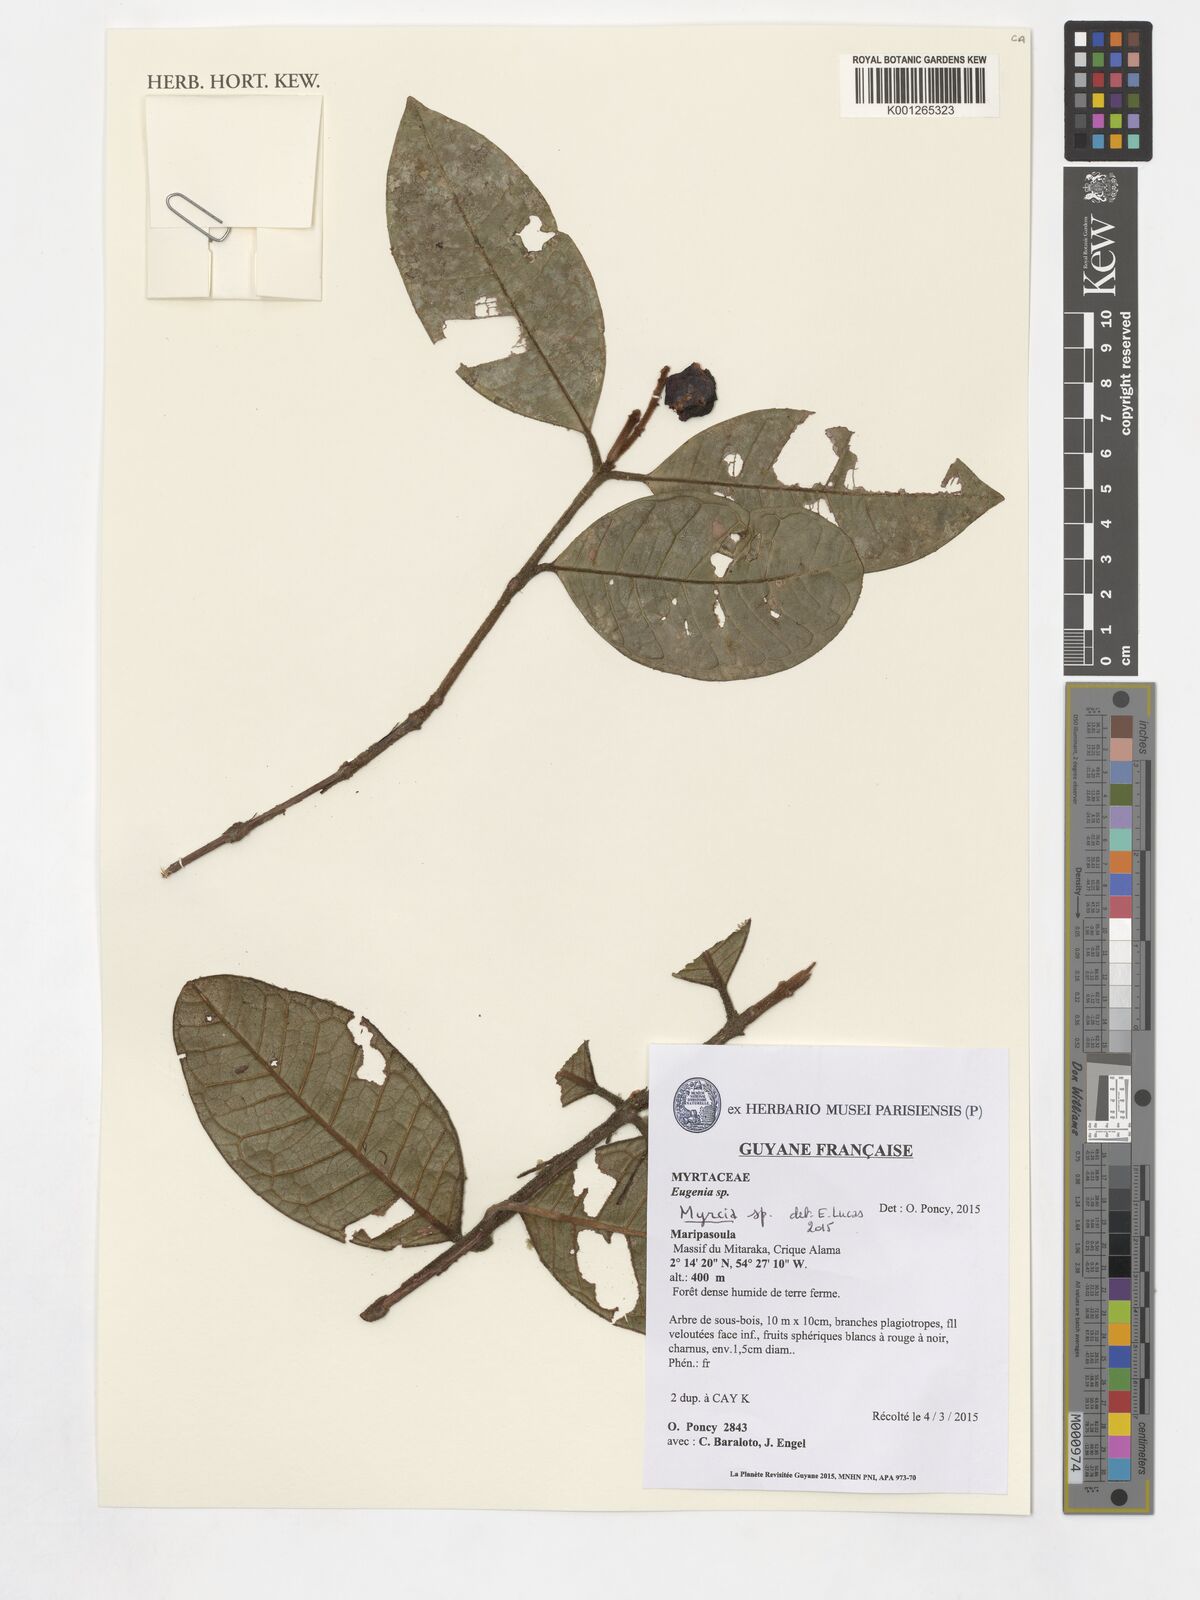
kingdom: Plantae
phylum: Tracheophyta
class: Magnoliopsida
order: Myrtales
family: Myrtaceae
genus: Myrcia
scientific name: Myrcia
